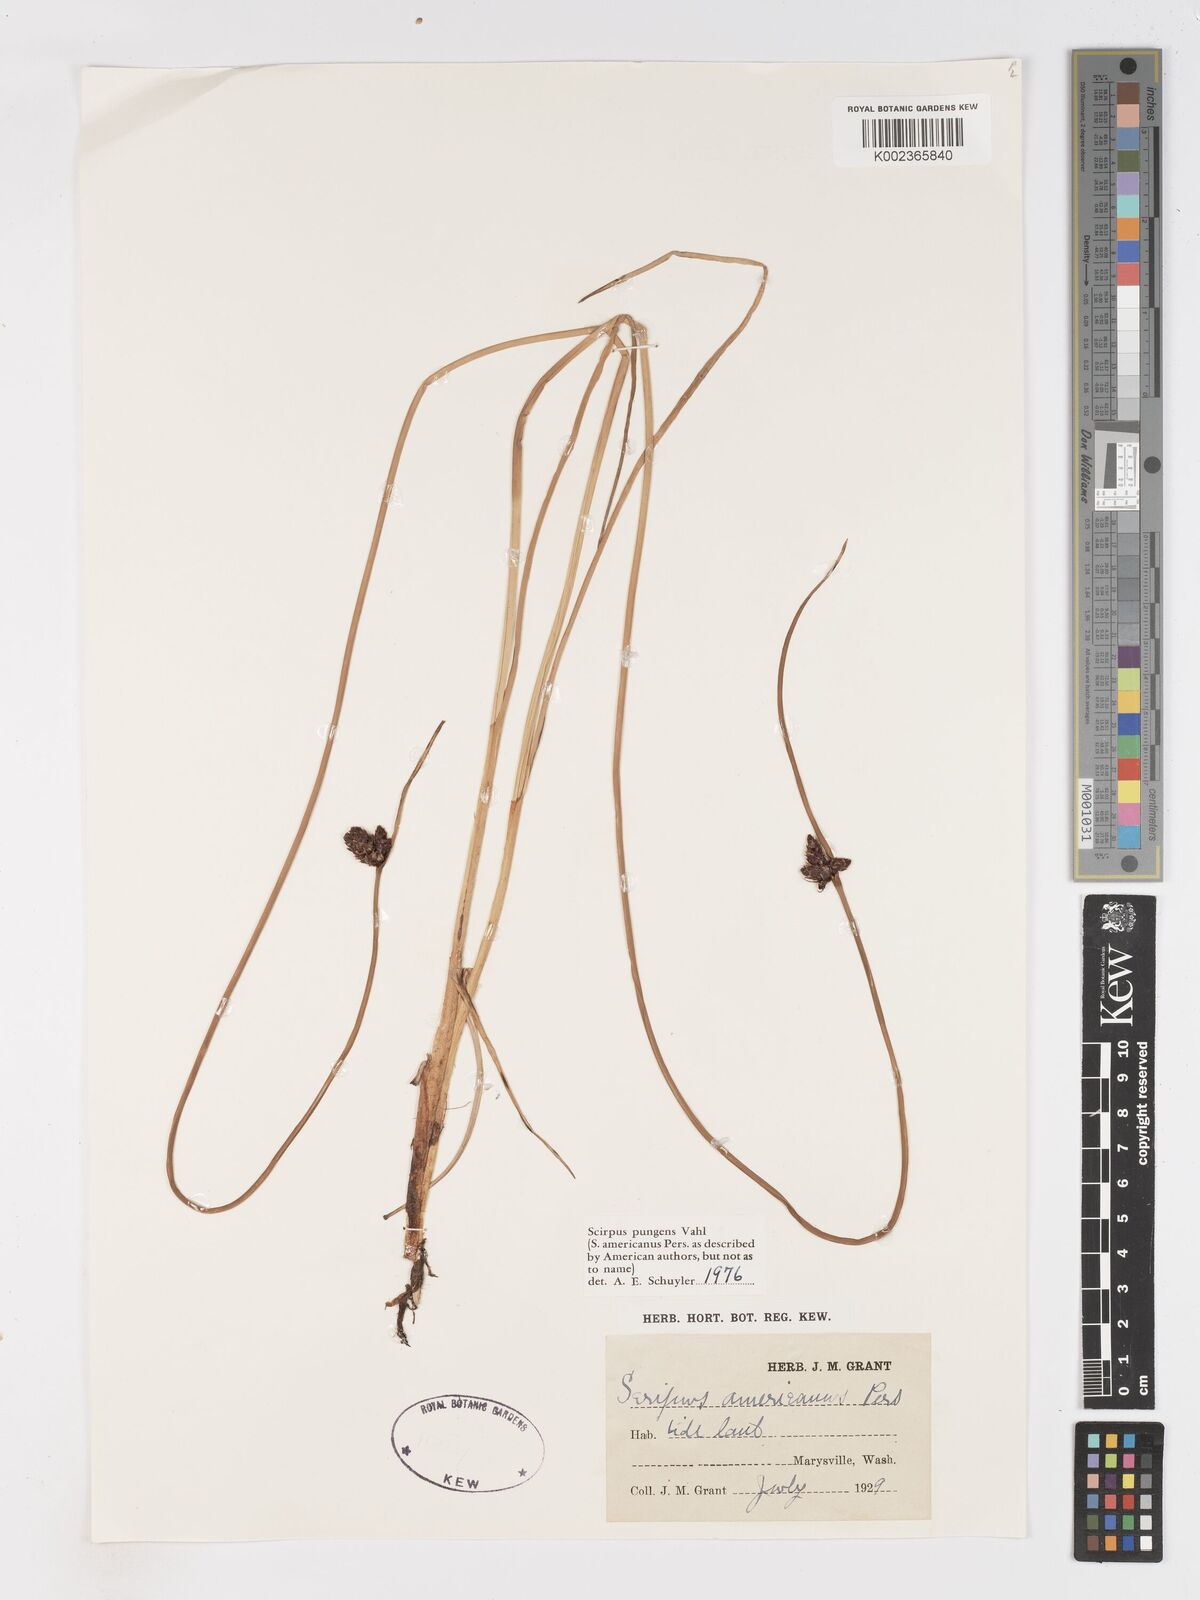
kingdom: Plantae
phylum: Tracheophyta
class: Liliopsida
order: Poales
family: Cyperaceae
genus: Schoenoplectus
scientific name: Schoenoplectus pungens
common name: Sharp club-rush
